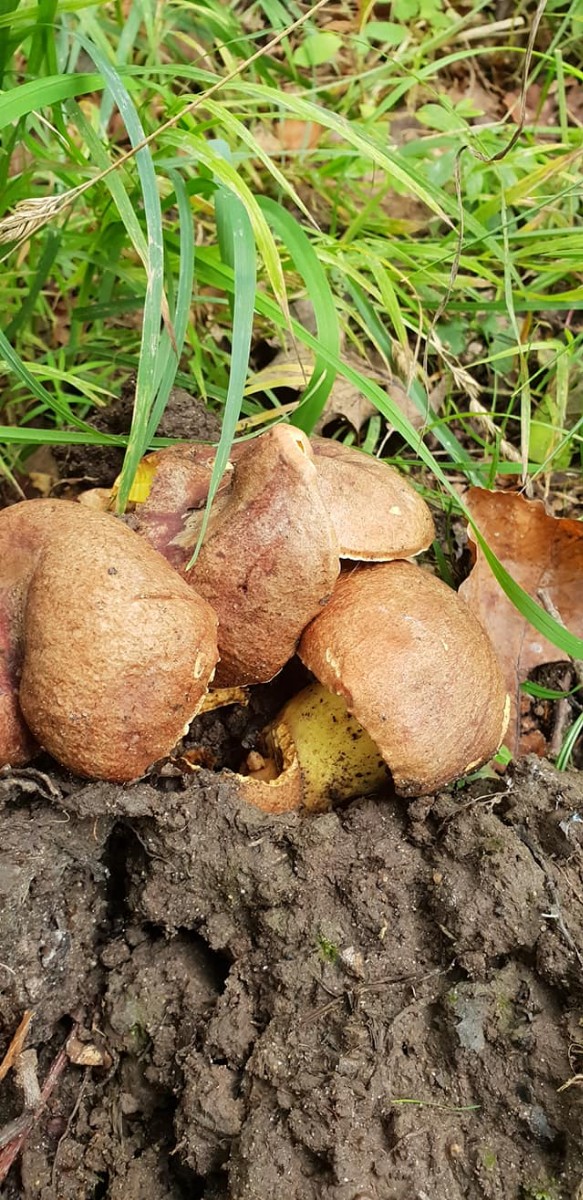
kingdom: Fungi
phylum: Basidiomycota
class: Agaricomycetes
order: Boletales
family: Boletaceae
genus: Butyriboletus
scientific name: Butyriboletus appendiculatus
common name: tenstokket rørhat
